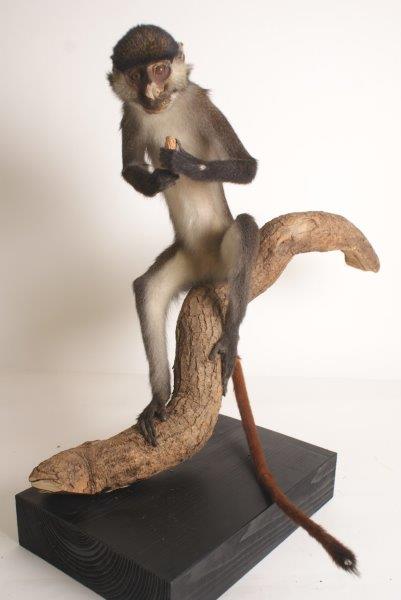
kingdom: Animalia
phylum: Chordata
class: Mammalia
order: Primates
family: Cercopithecidae
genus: Cercopithecus
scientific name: Cercopithecus petaurista
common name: Lesser Spot-nosed Monkey
